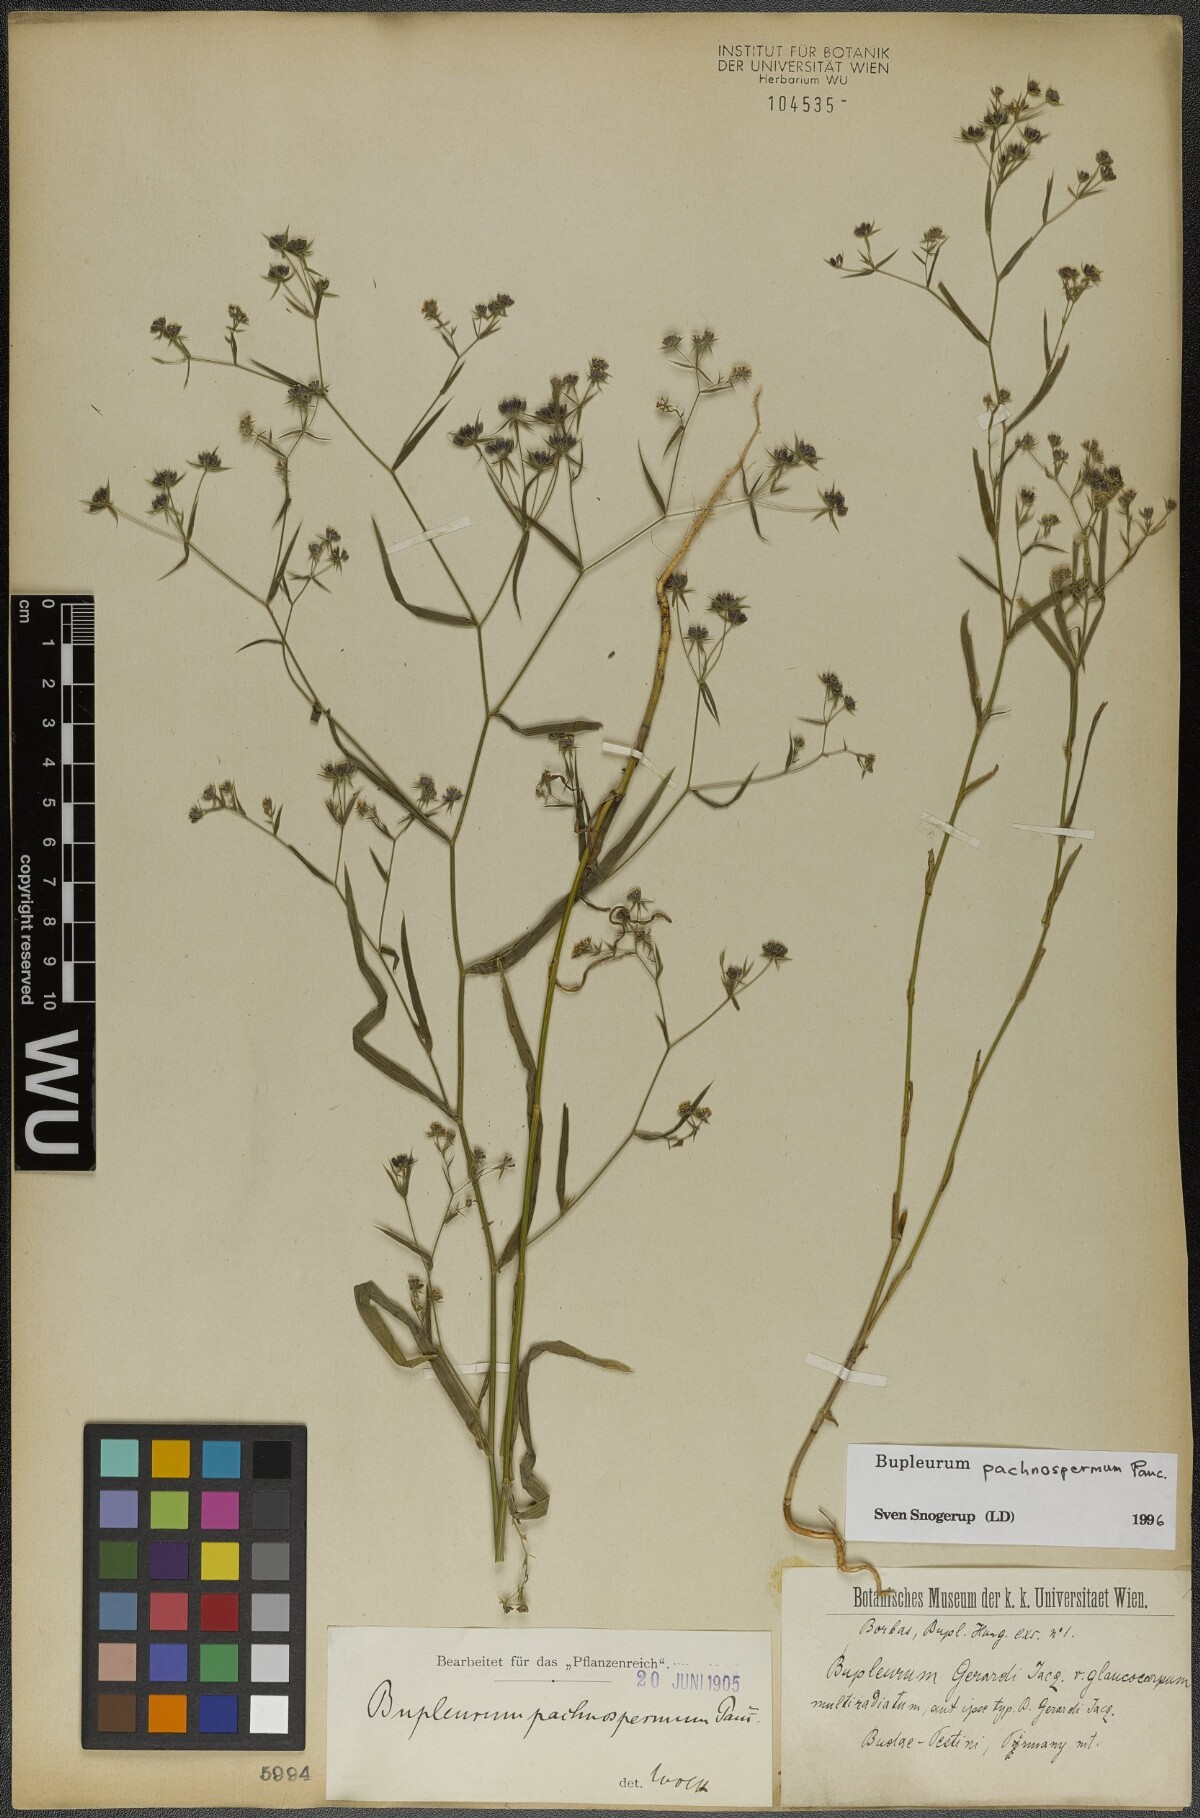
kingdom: Plantae
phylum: Tracheophyta
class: Magnoliopsida
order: Apiales
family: Apiaceae
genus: Bupleurum
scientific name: Bupleurum pachnospermum
